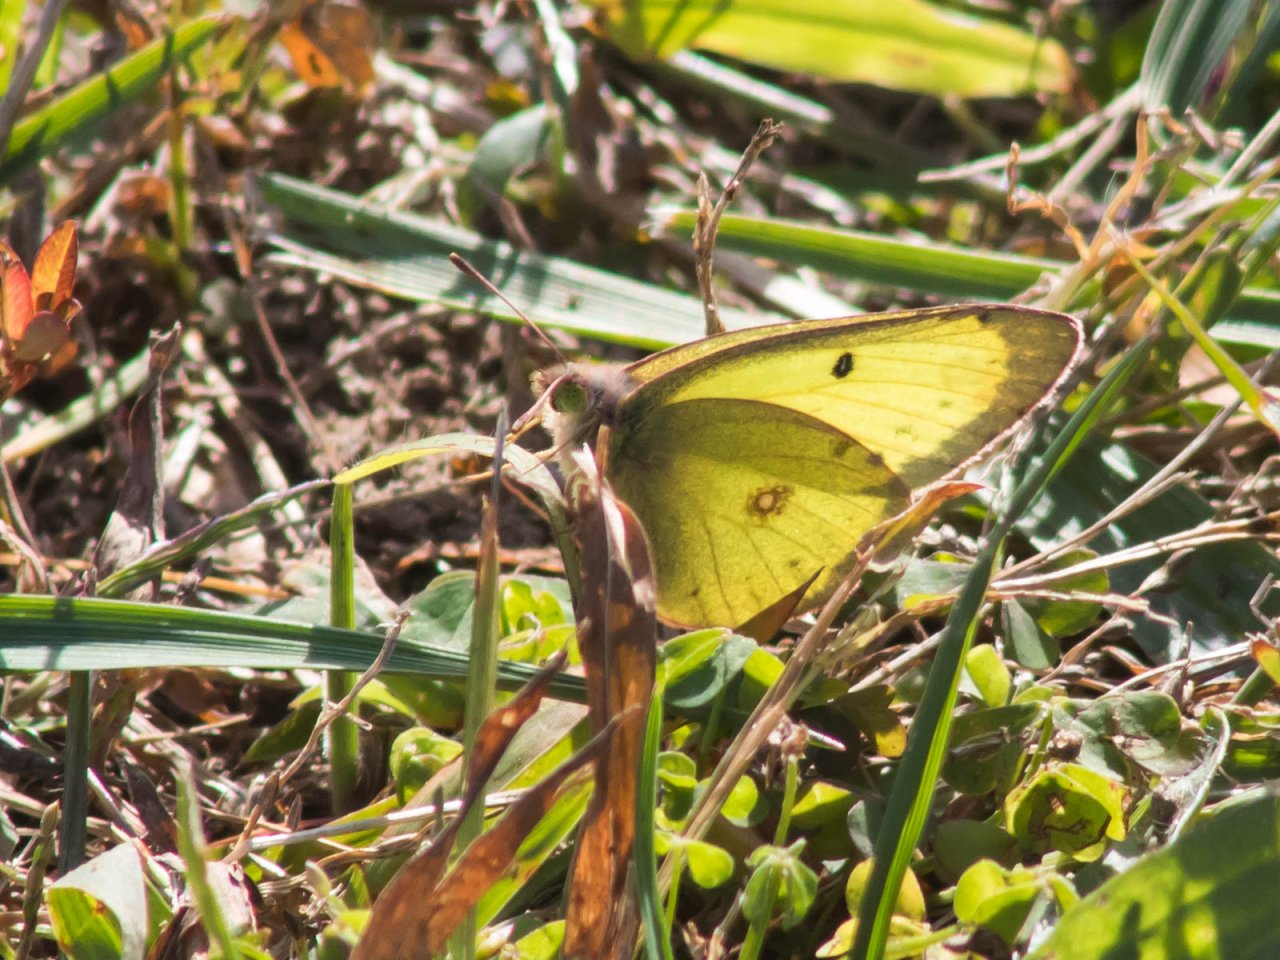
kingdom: Animalia
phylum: Arthropoda
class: Insecta
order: Lepidoptera
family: Pieridae
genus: Colias
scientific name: Colias philodice
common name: Clouded Sulphur
